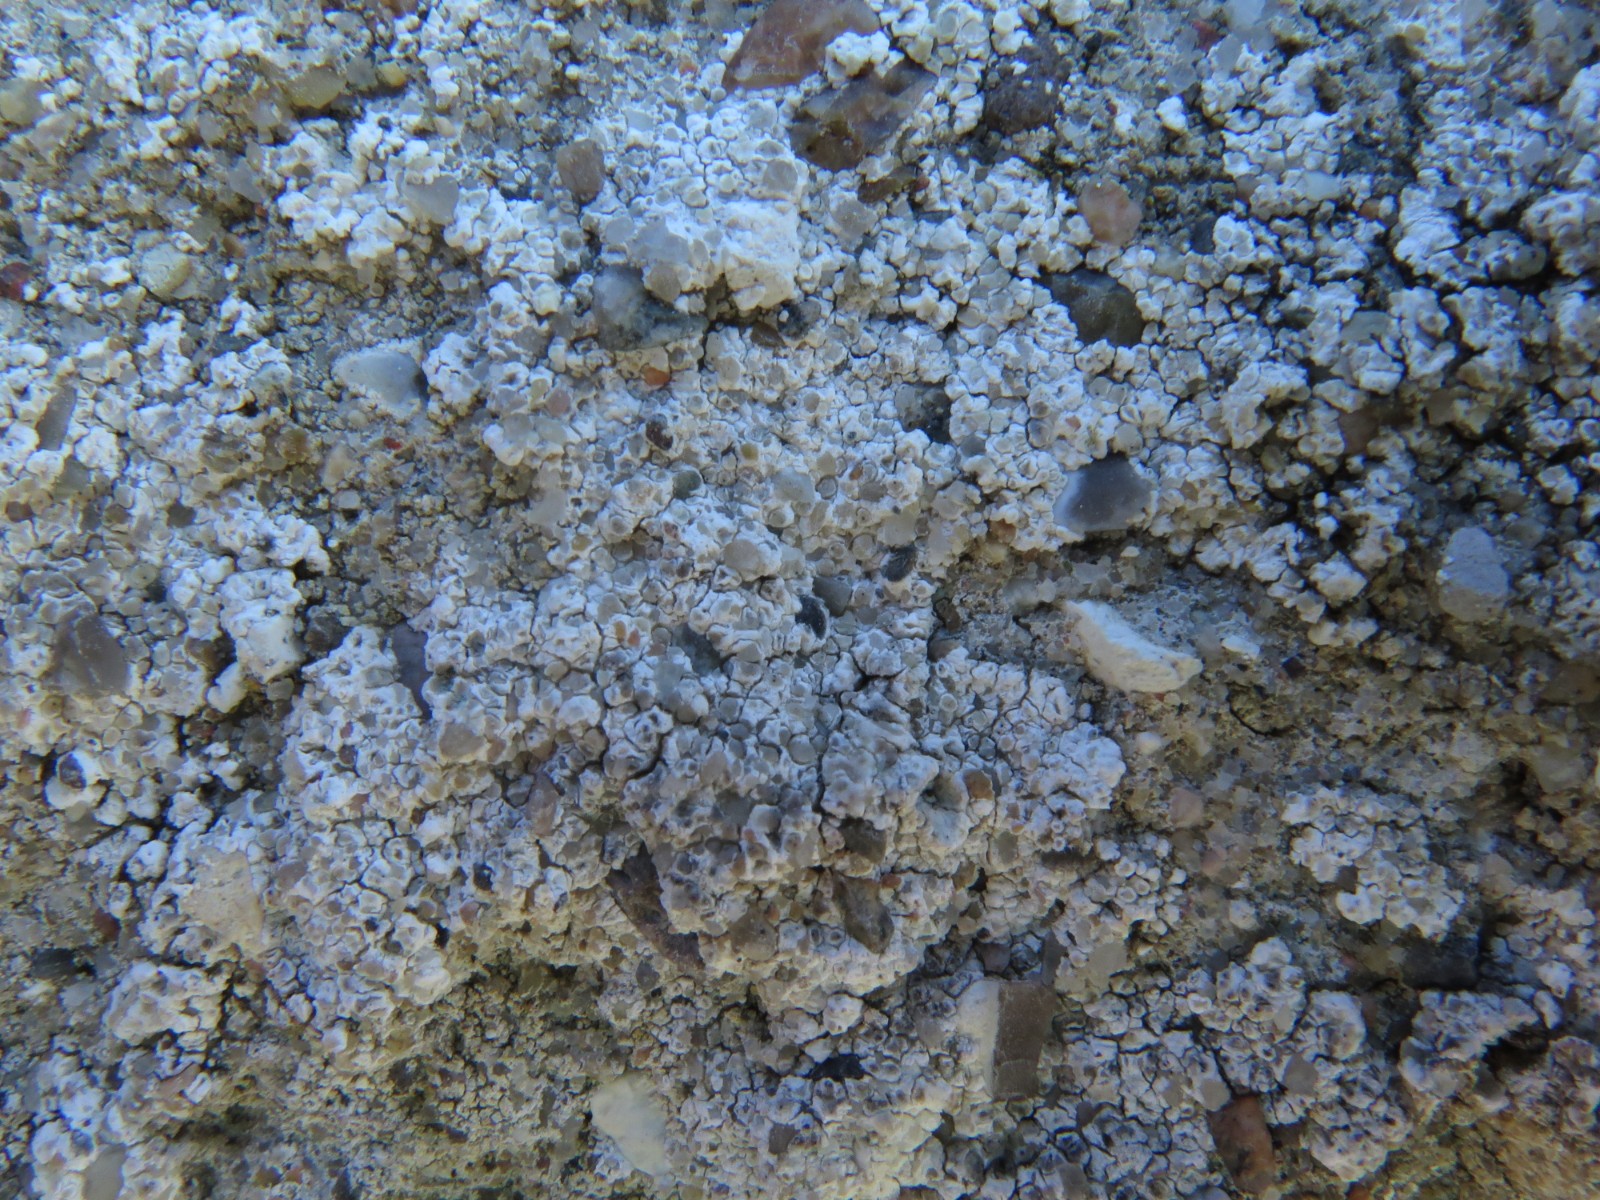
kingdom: Fungi
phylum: Ascomycota
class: Lecanoromycetes
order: Lecanorales
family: Lecanoraceae
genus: Polyozosia
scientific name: Polyozosia albescens
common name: cement-kantskivelav
